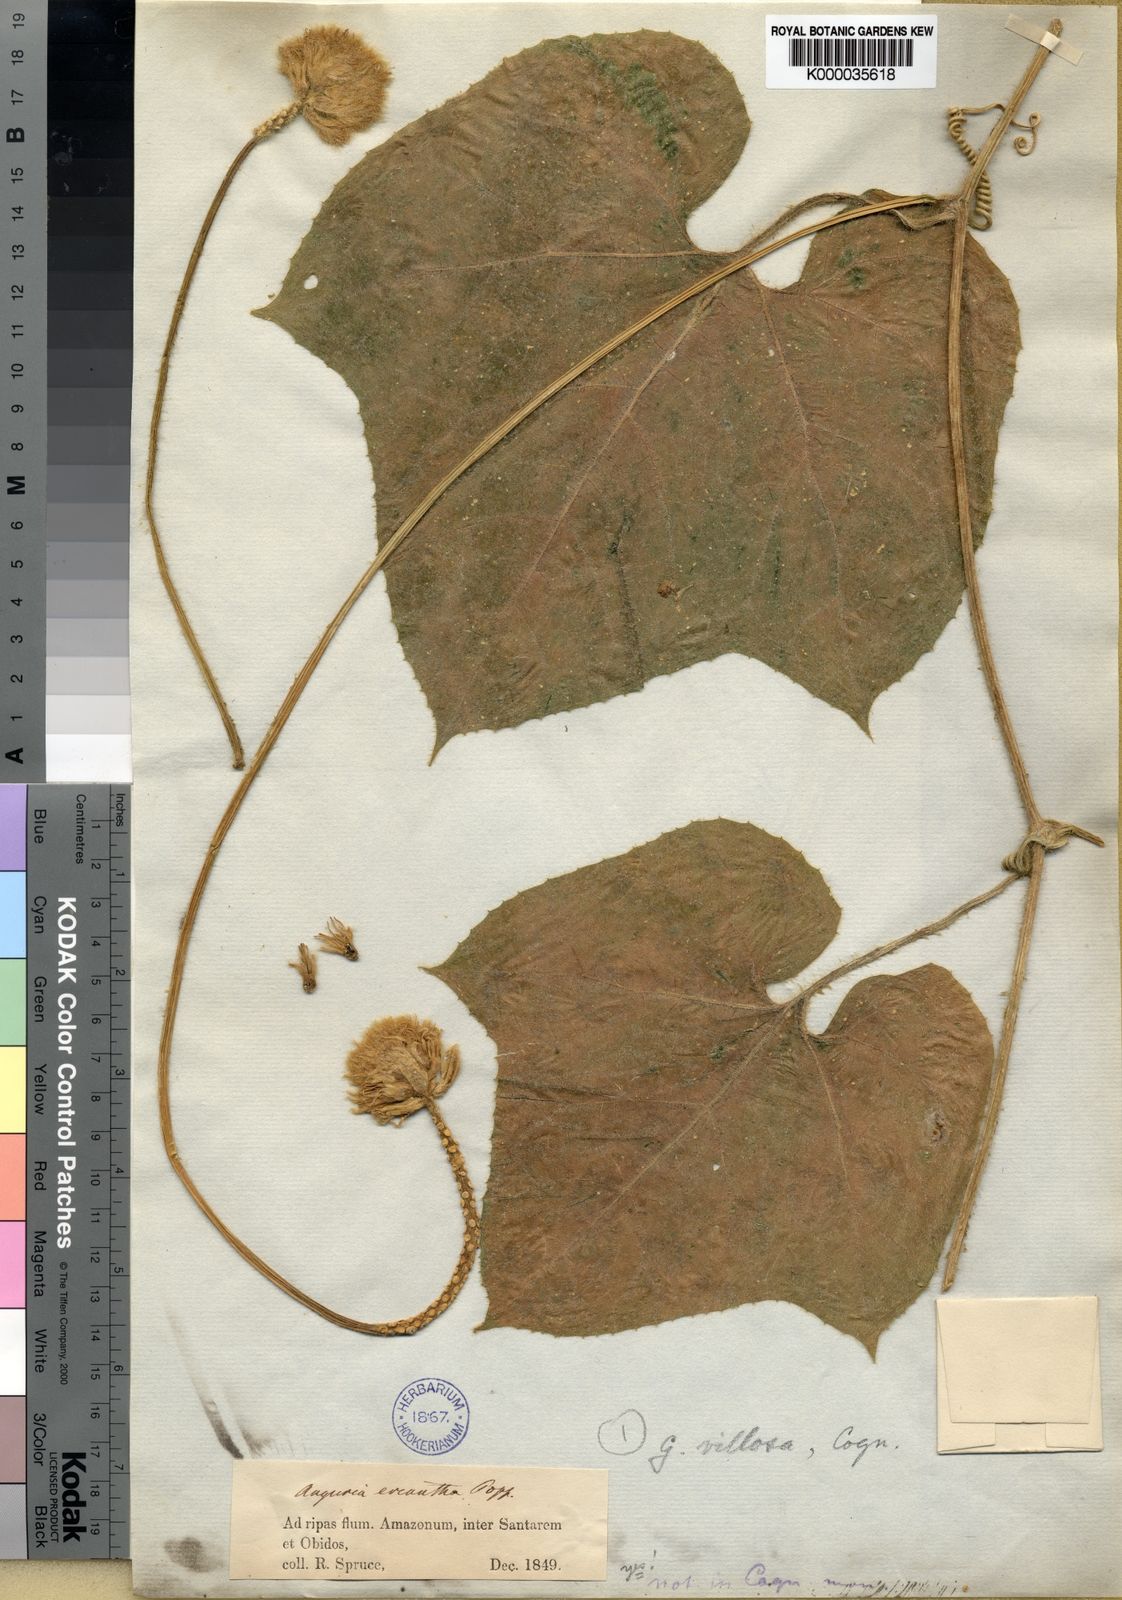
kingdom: Plantae
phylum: Tracheophyta
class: Magnoliopsida
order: Cucurbitales
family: Cucurbitaceae
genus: Gurania
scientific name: Gurania eriantha
